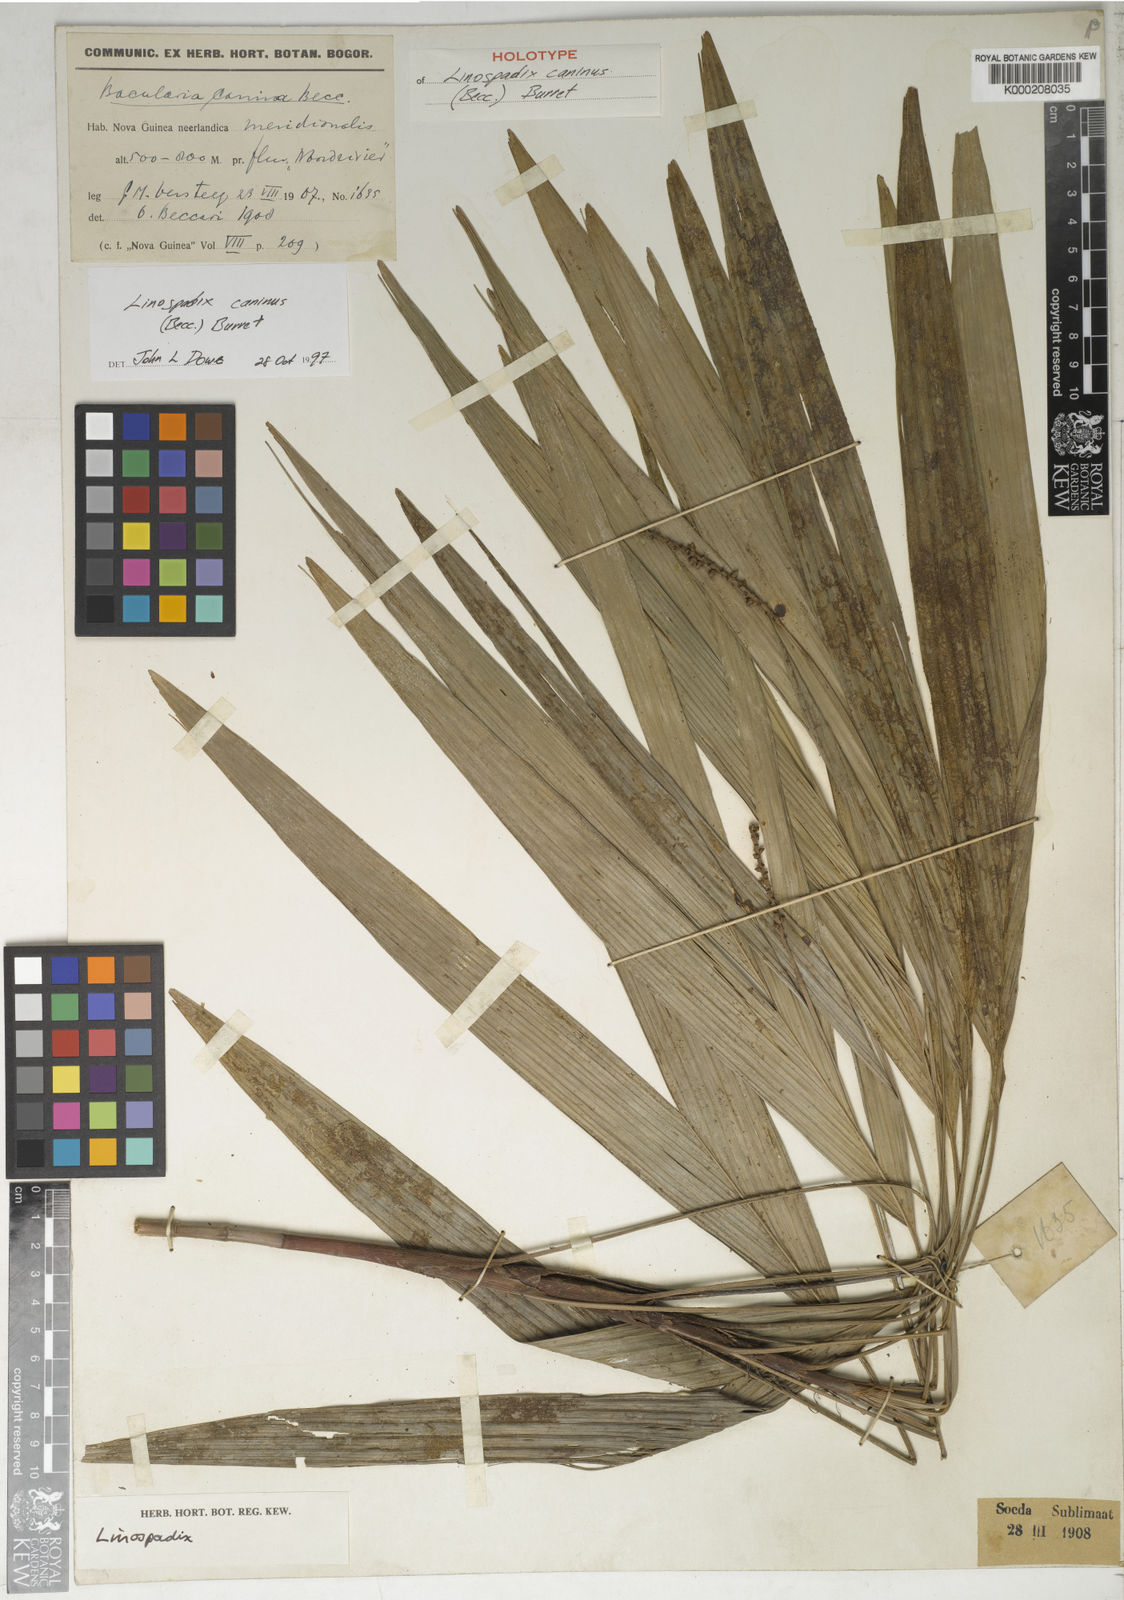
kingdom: Plantae
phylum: Tracheophyta
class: Liliopsida
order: Arecales
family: Arecaceae
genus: Linospadix
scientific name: Linospadix caninus
